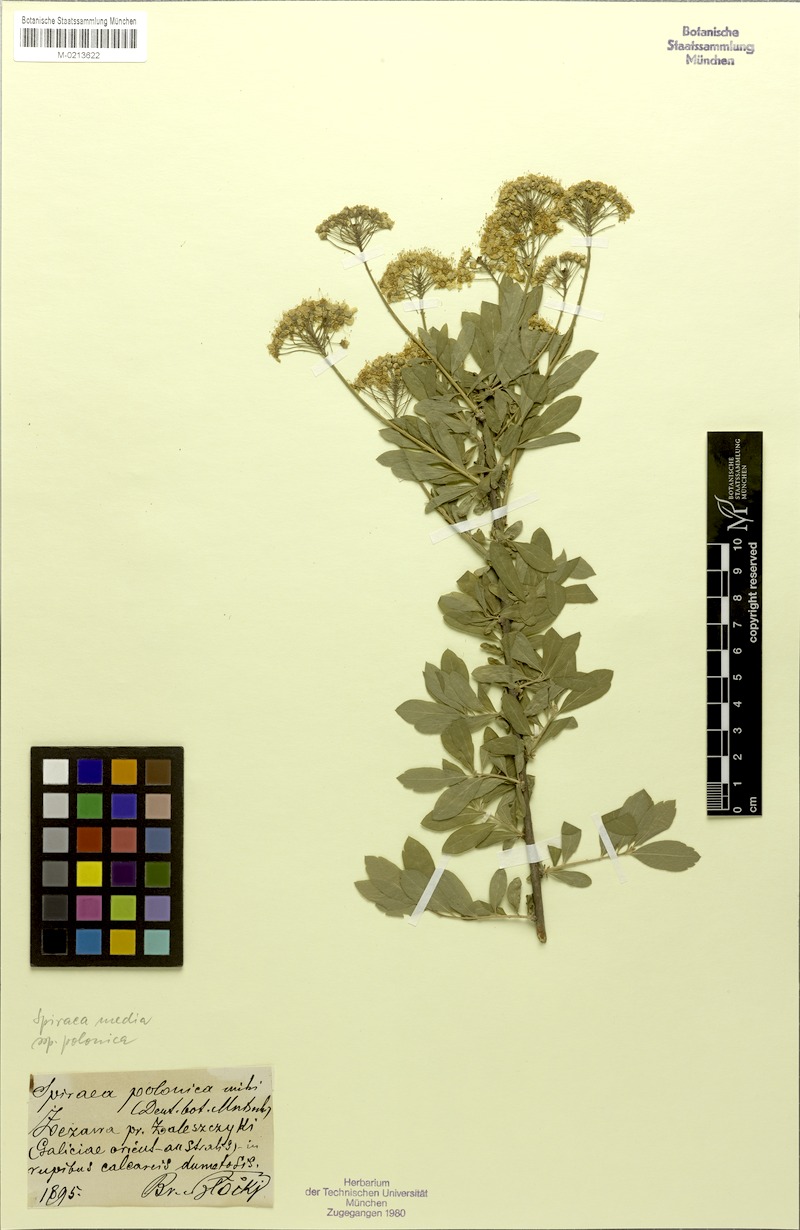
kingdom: Plantae
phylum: Tracheophyta
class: Magnoliopsida
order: Rosales
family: Rosaceae
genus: Spiraea
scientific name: Spiraea media
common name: Russian spiraea
